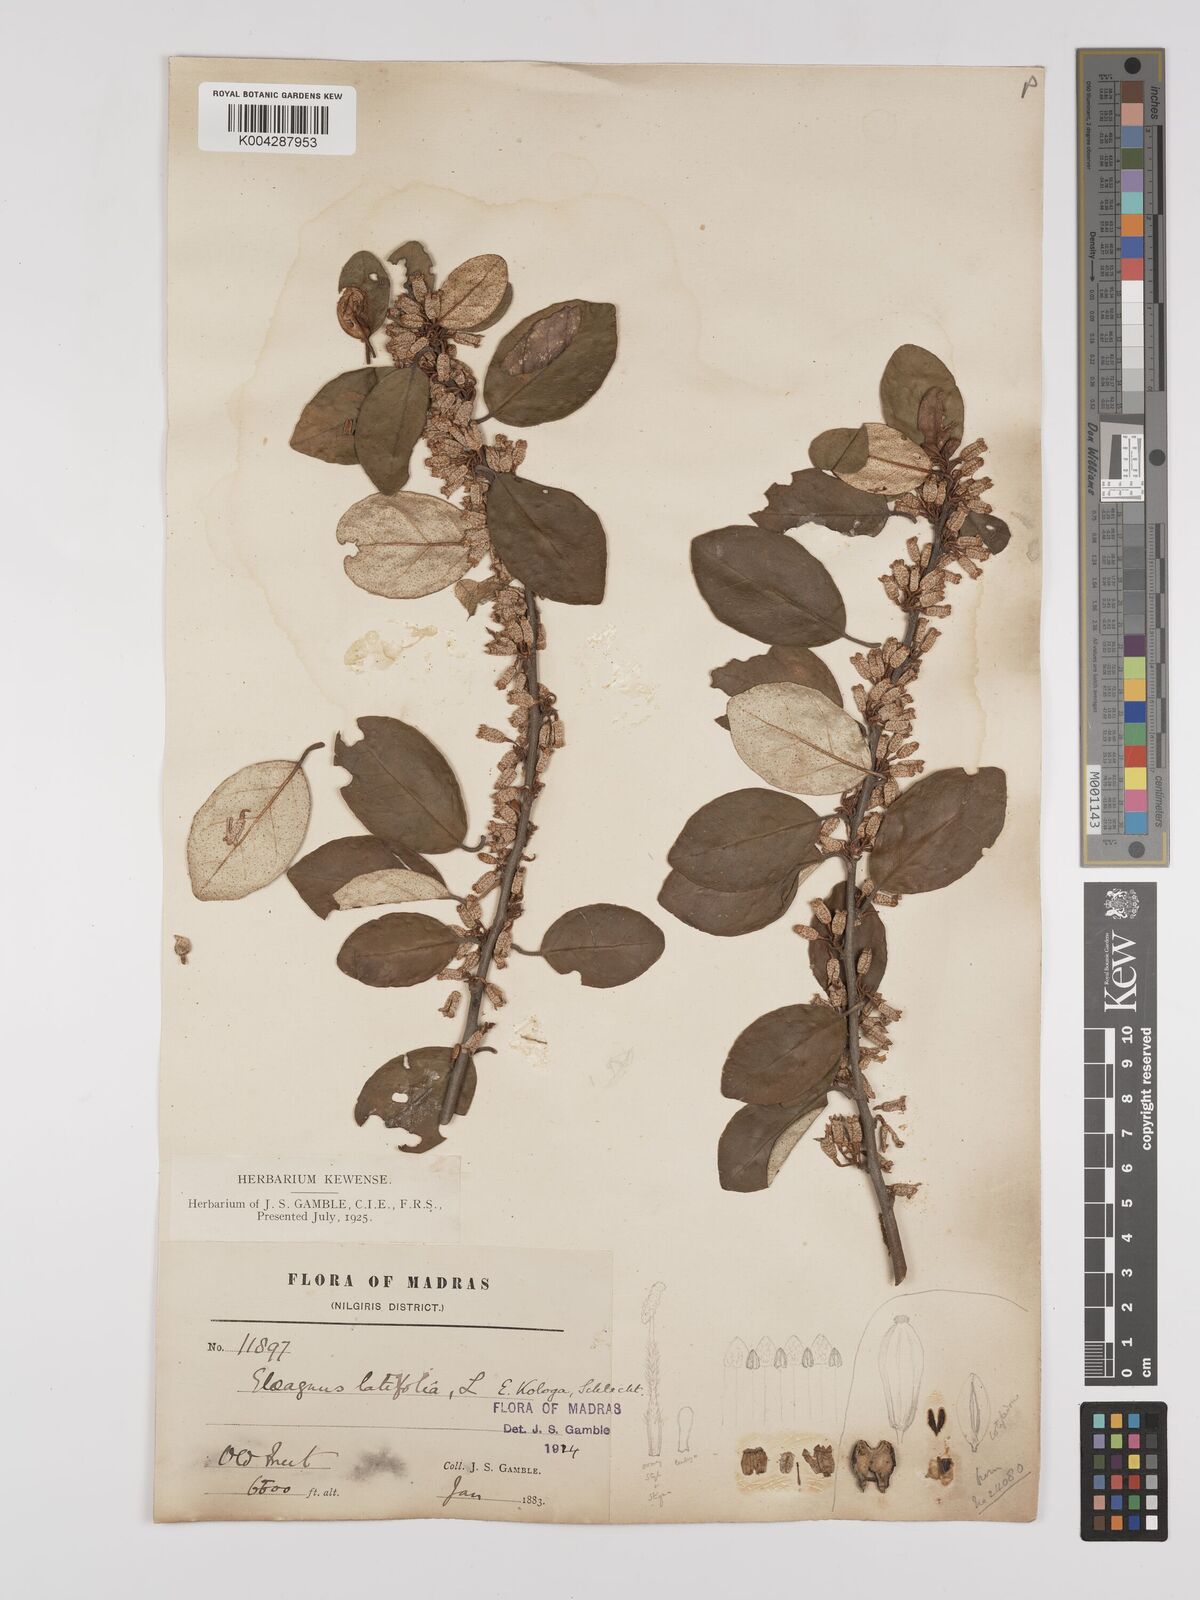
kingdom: Plantae
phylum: Tracheophyta
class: Magnoliopsida
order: Rosales
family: Elaeagnaceae
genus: Elaeagnus
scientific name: Elaeagnus latifolia
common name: Oleaster
